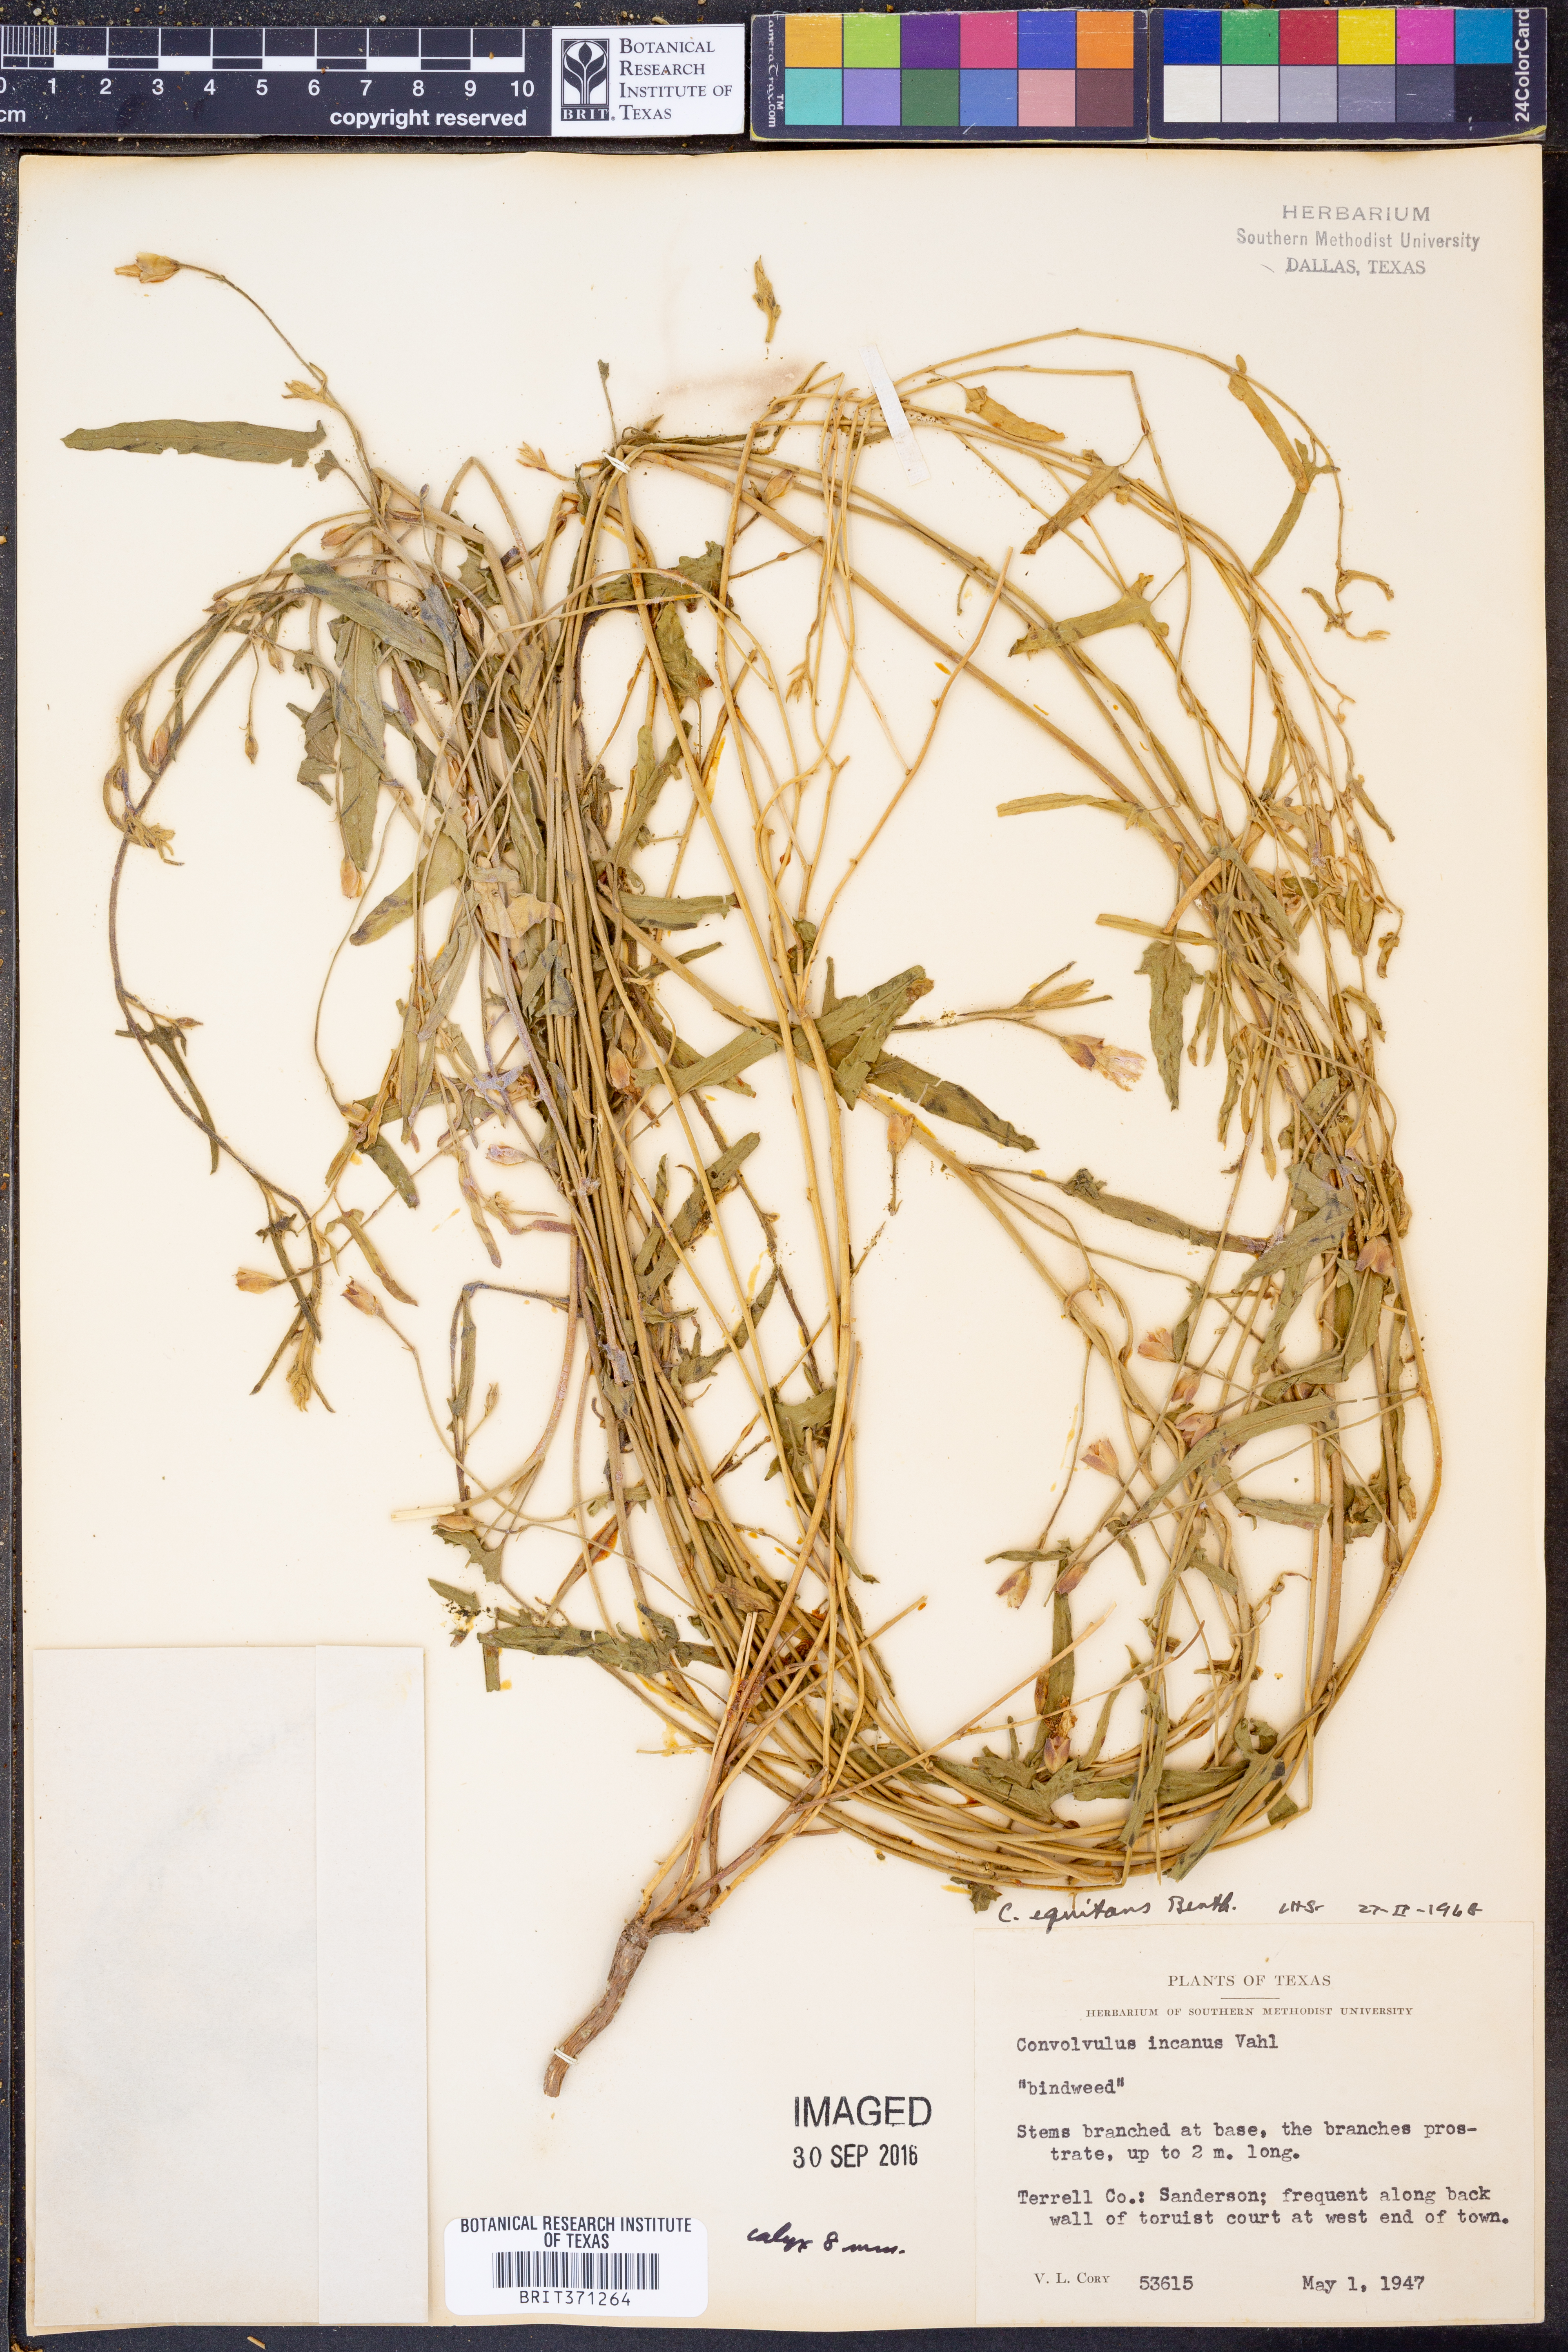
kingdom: Plantae
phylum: Tracheophyta
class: Magnoliopsida
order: Solanales
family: Convolvulaceae
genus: Convolvulus
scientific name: Convolvulus equitans
